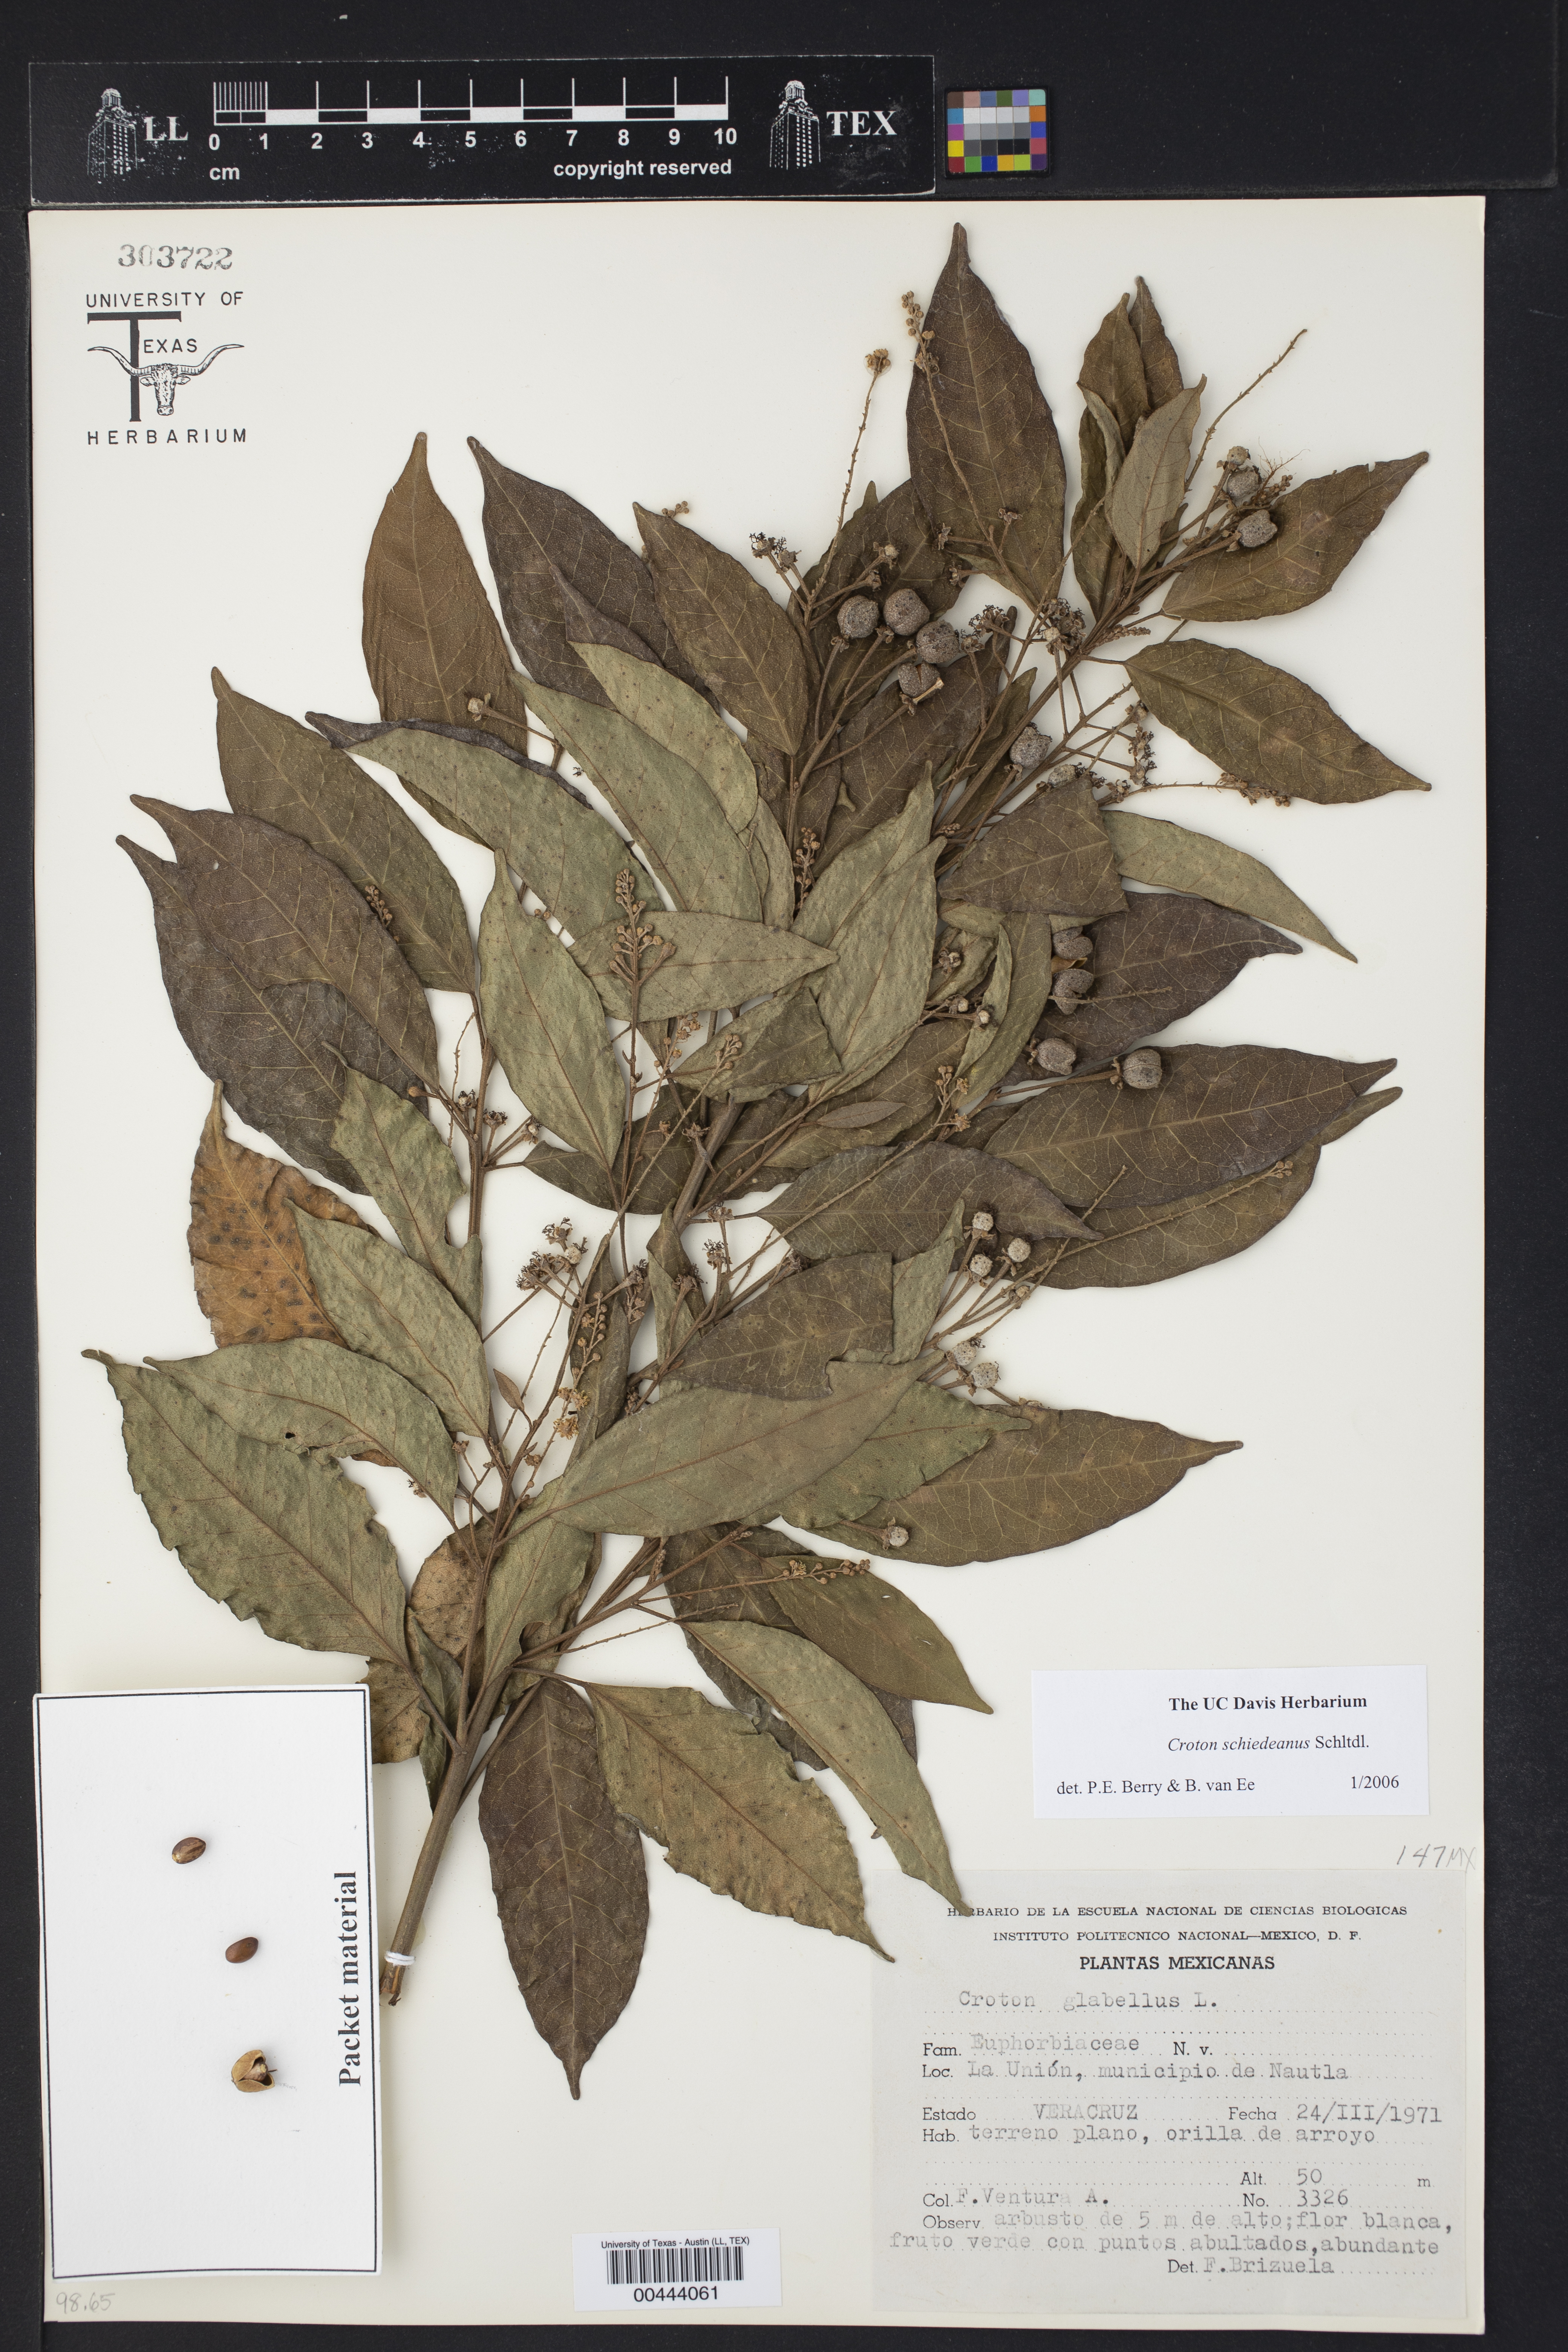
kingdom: Plantae
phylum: Tracheophyta
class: Magnoliopsida
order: Malpighiales
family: Euphorbiaceae
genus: Croton
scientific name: Croton schiedeanus
